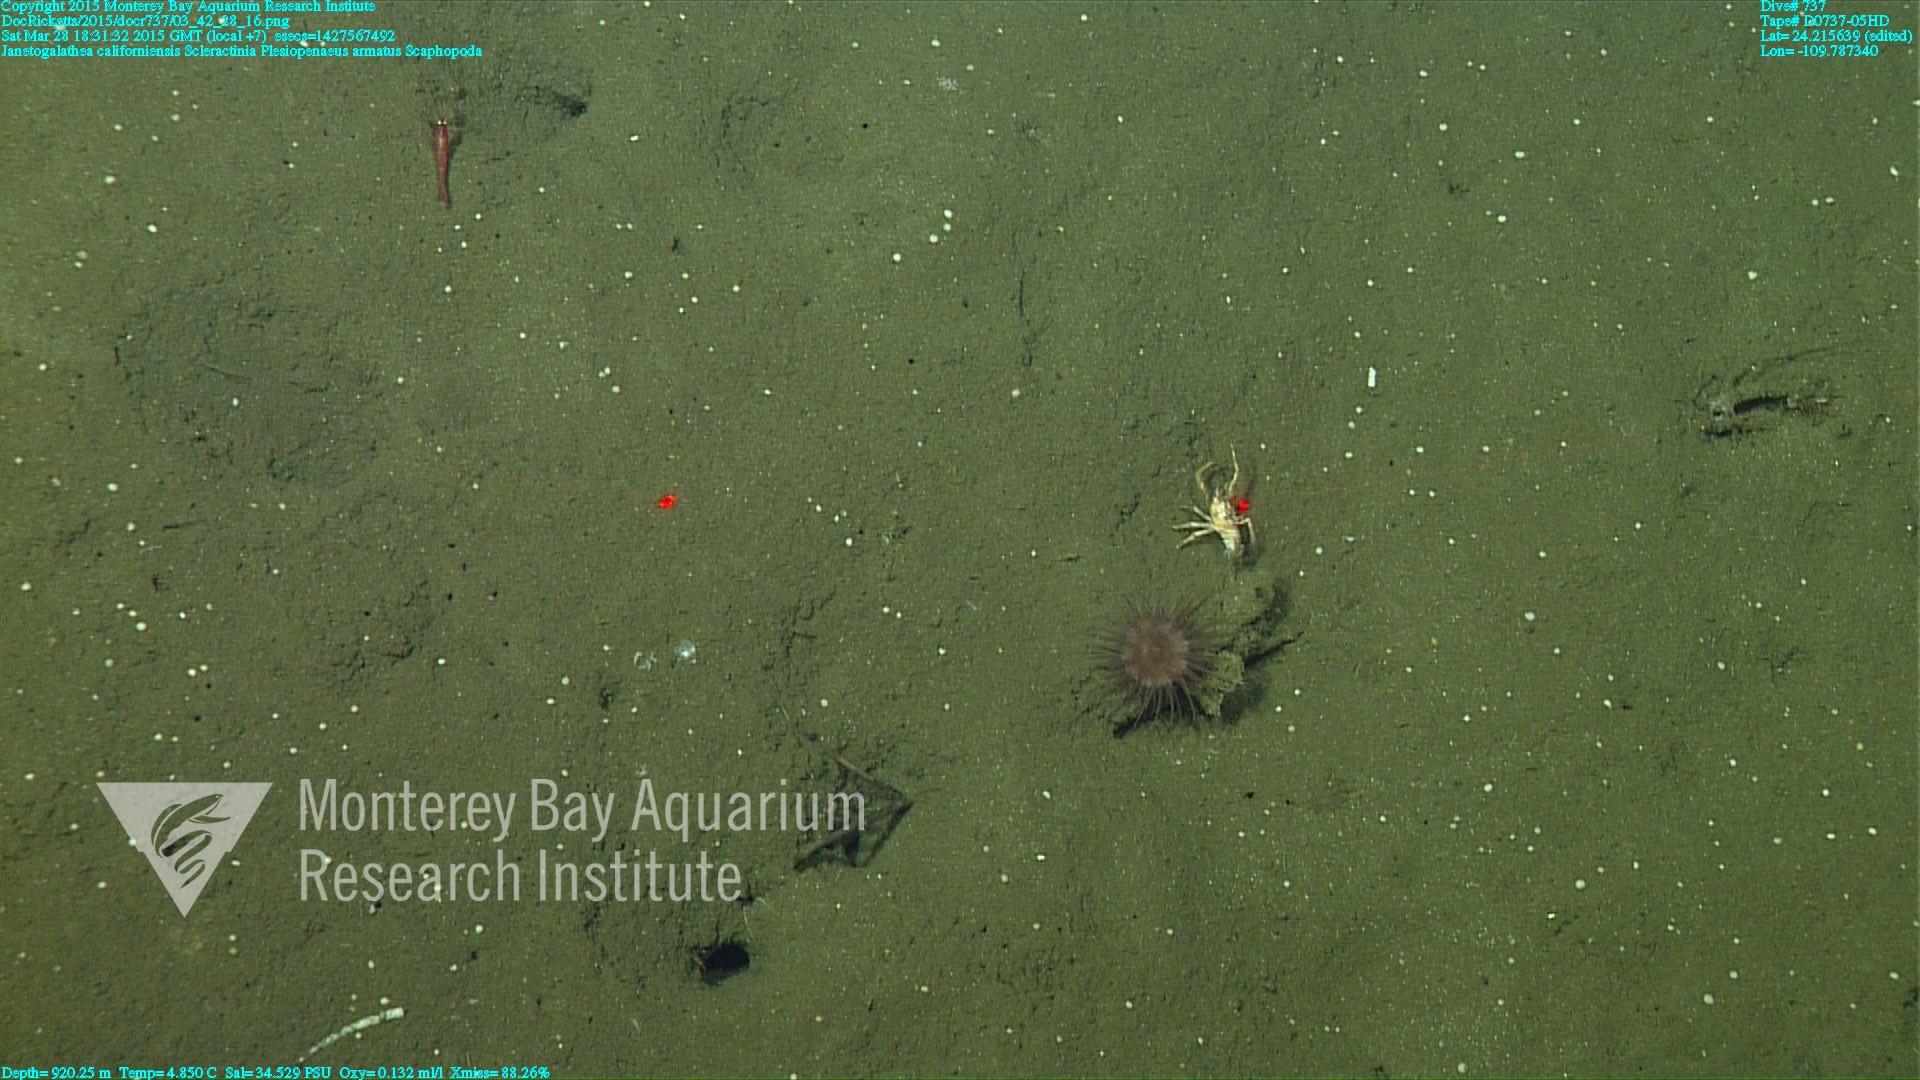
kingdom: Animalia
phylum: Cnidaria
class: Anthozoa
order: Scleractinia
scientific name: Scleractinia
